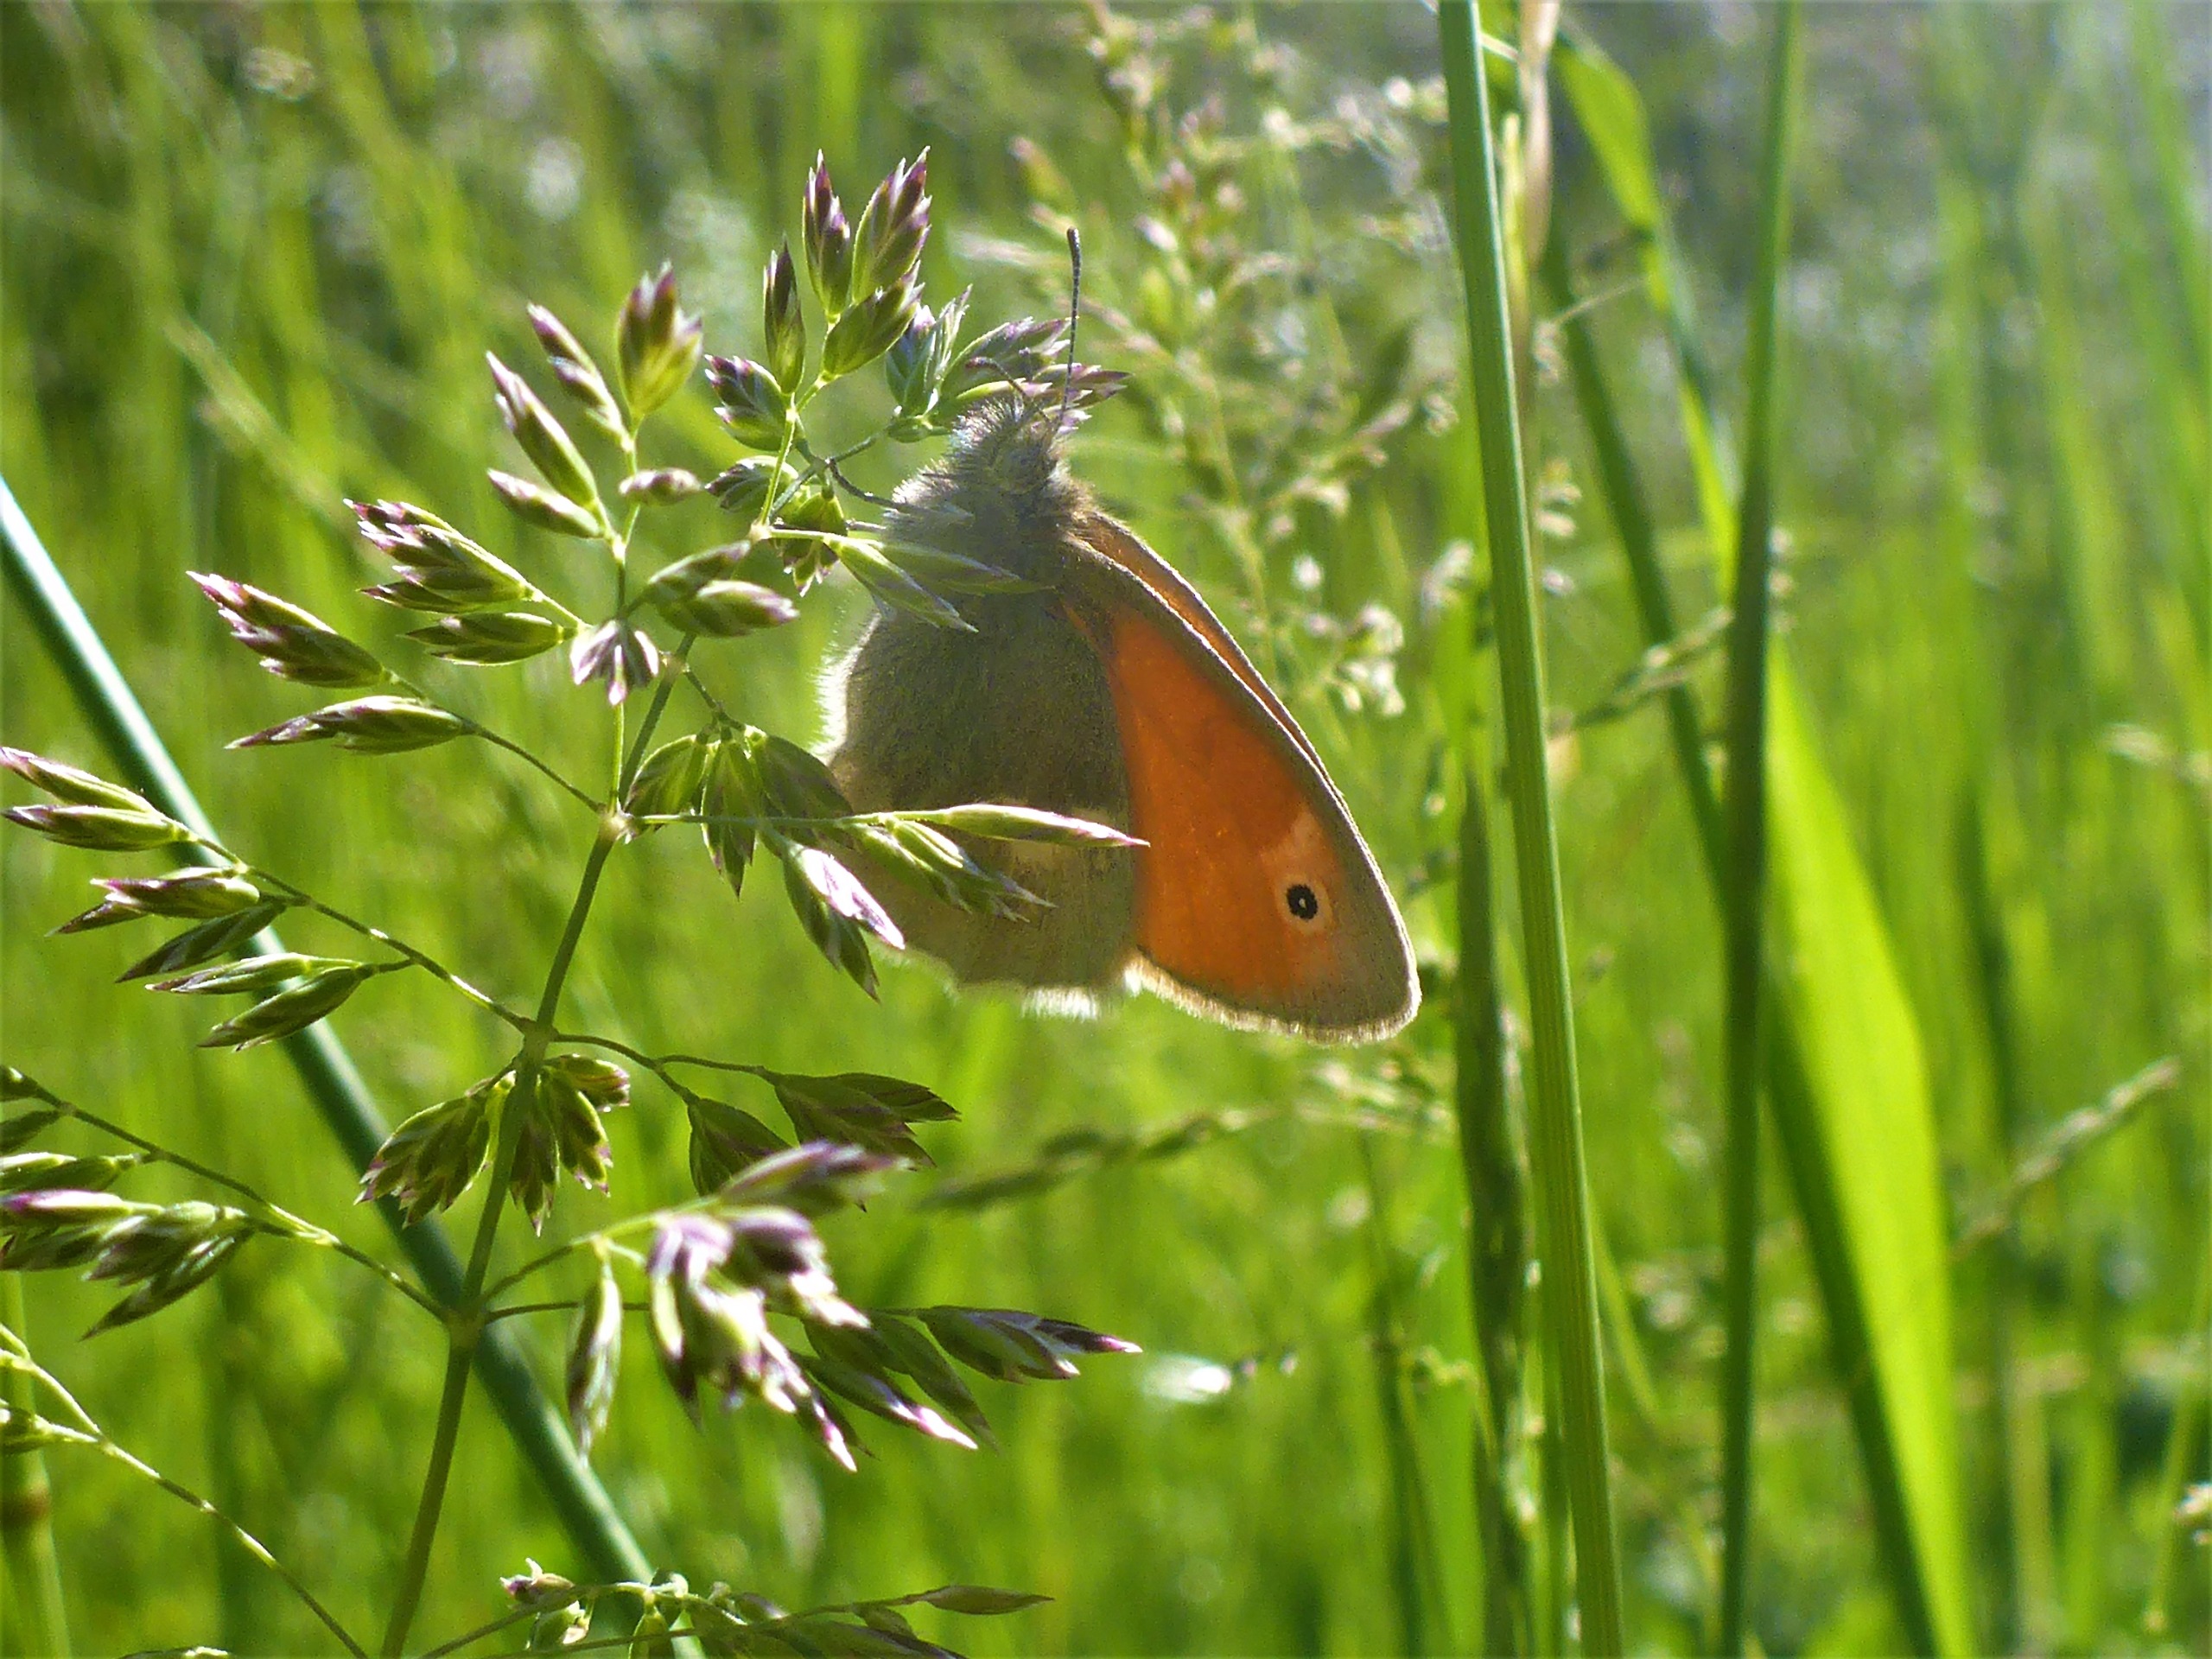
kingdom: Animalia
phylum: Arthropoda
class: Insecta
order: Lepidoptera
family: Nymphalidae
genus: Coenonympha
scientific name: Coenonympha pamphilus
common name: Okkergul randøje
